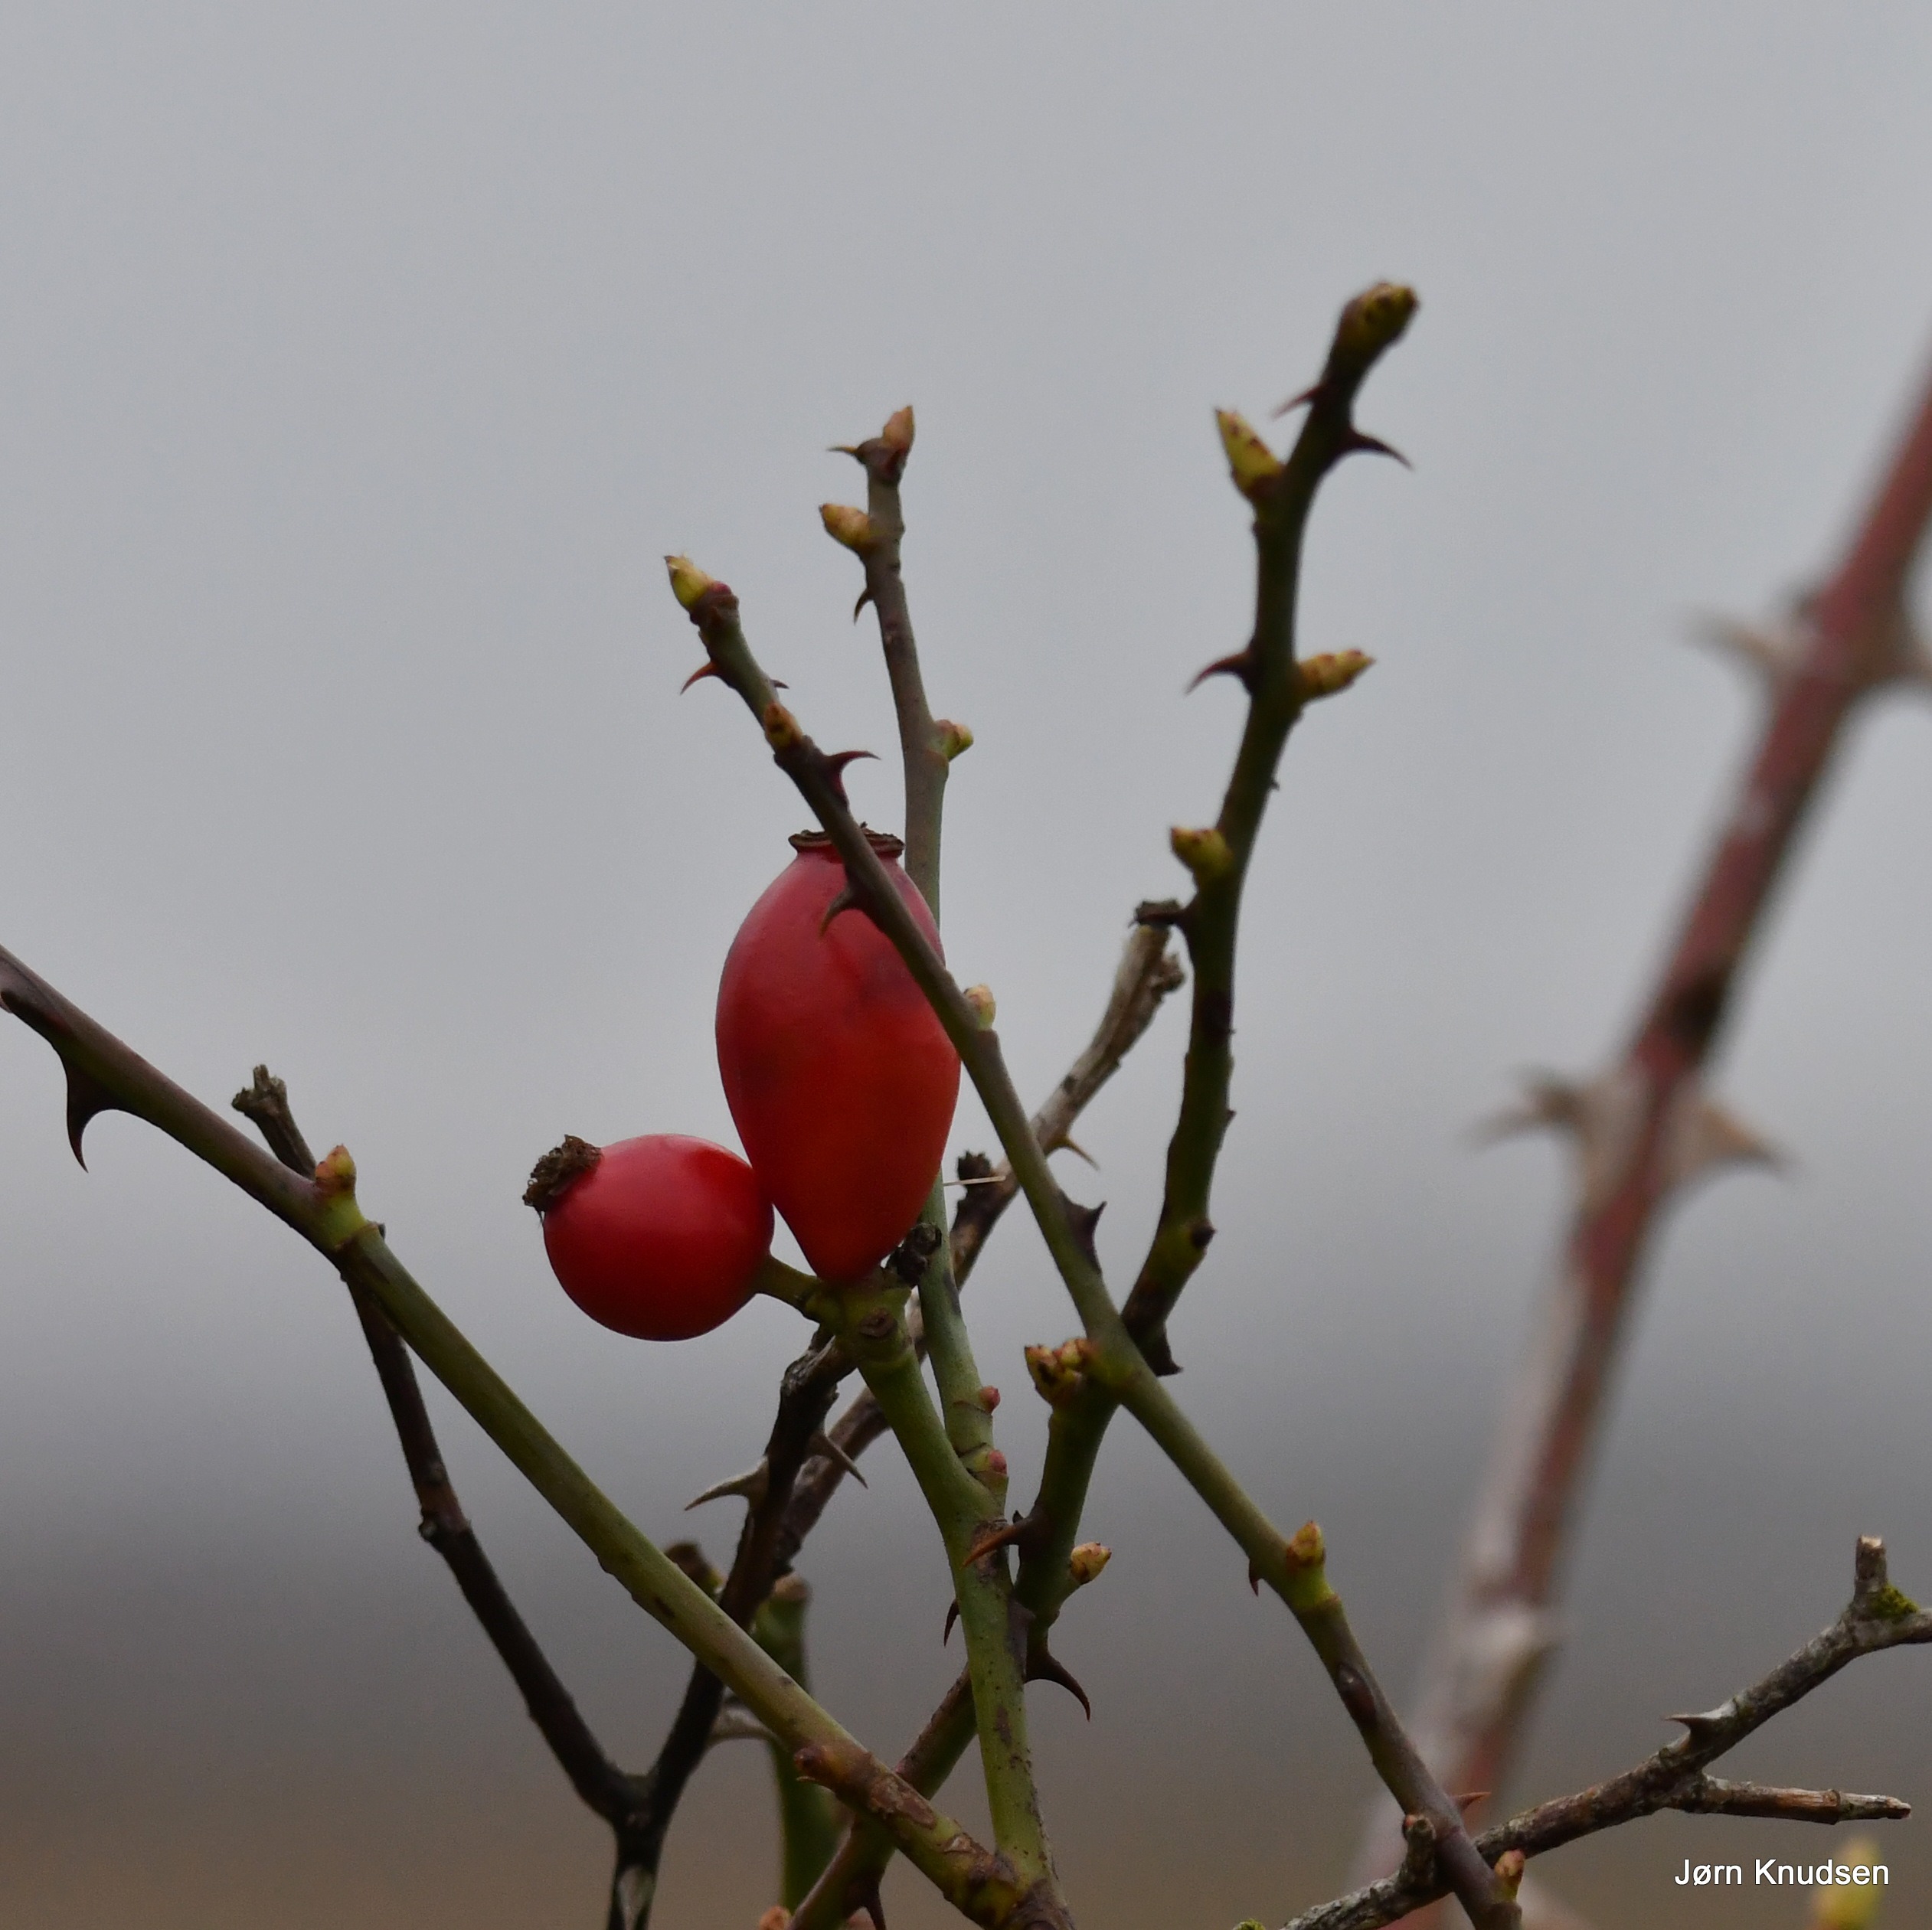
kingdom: Plantae
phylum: Tracheophyta
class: Magnoliopsida
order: Rosales
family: Rosaceae
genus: Rosa
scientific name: Rosa canina
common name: Hunde-rose
